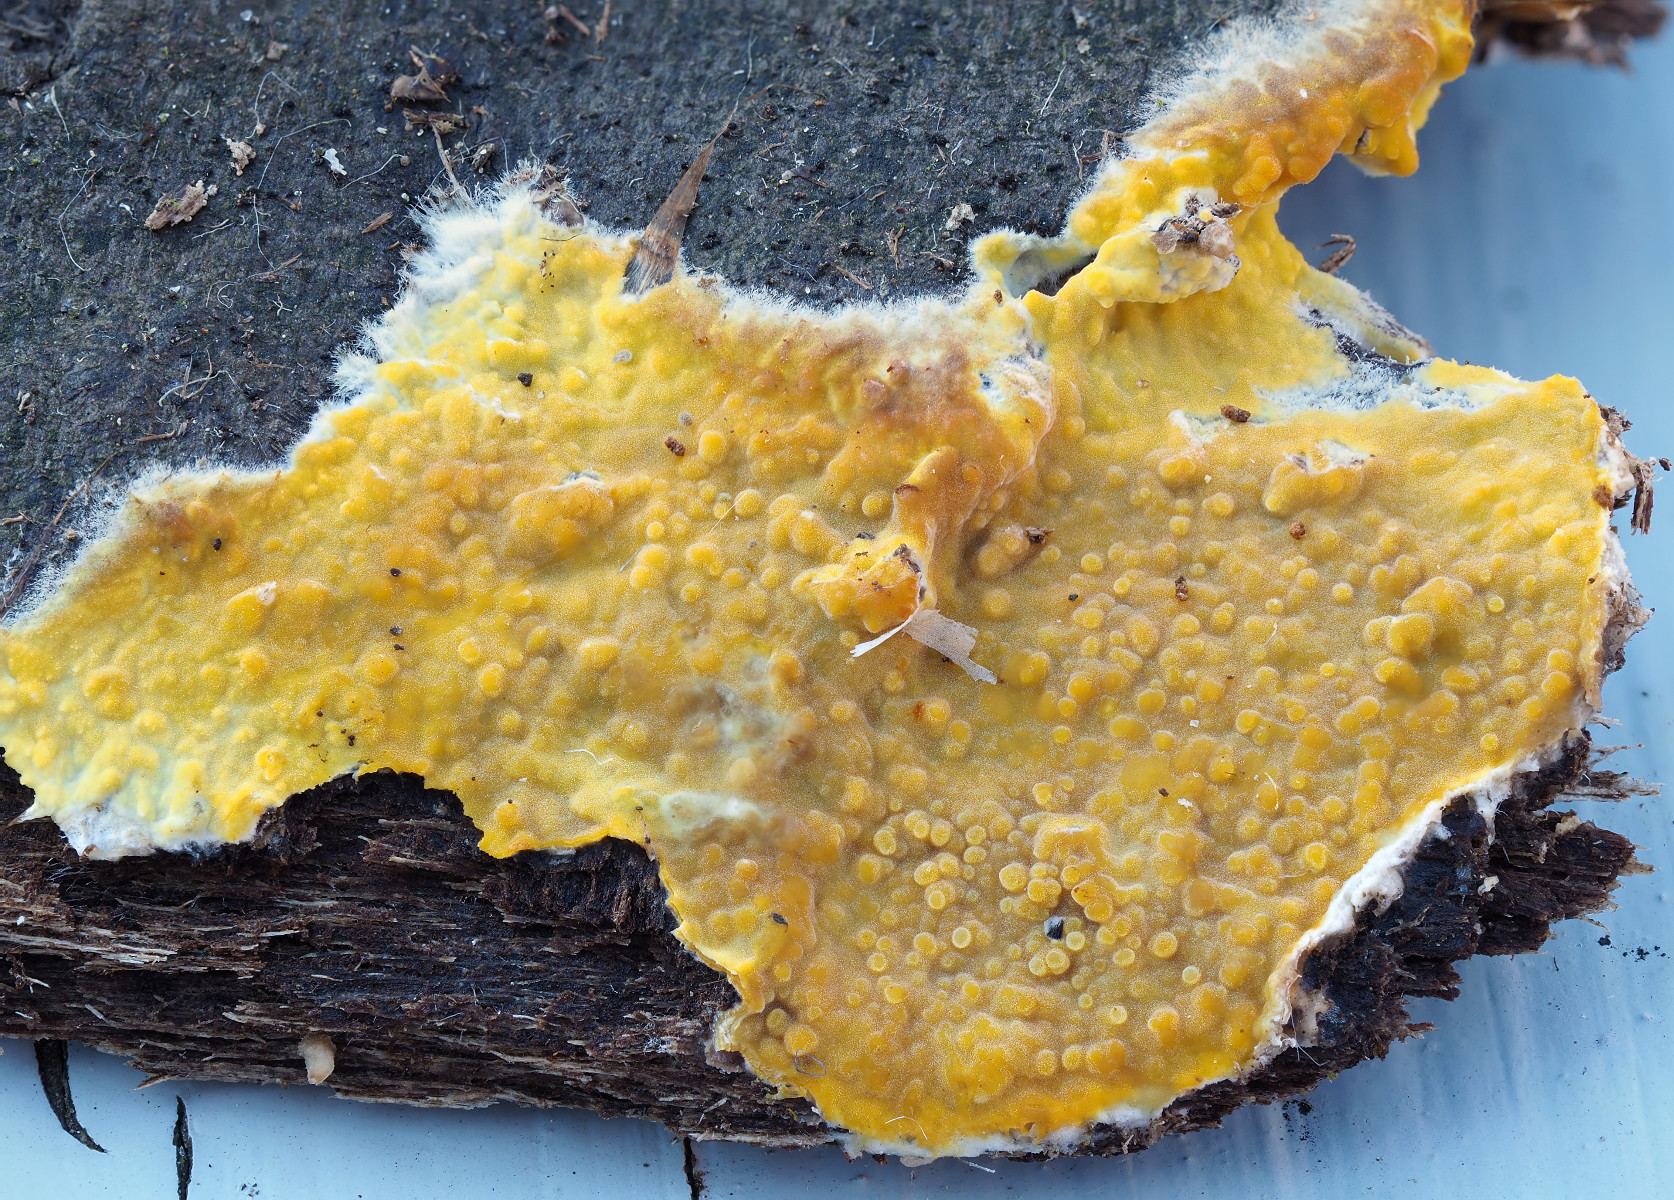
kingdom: Fungi
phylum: Basidiomycota
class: Agaricomycetes
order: Polyporales
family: Meruliaceae
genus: Phlebiodontia
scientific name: Phlebiodontia subochracea
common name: svovl-åresvamp
